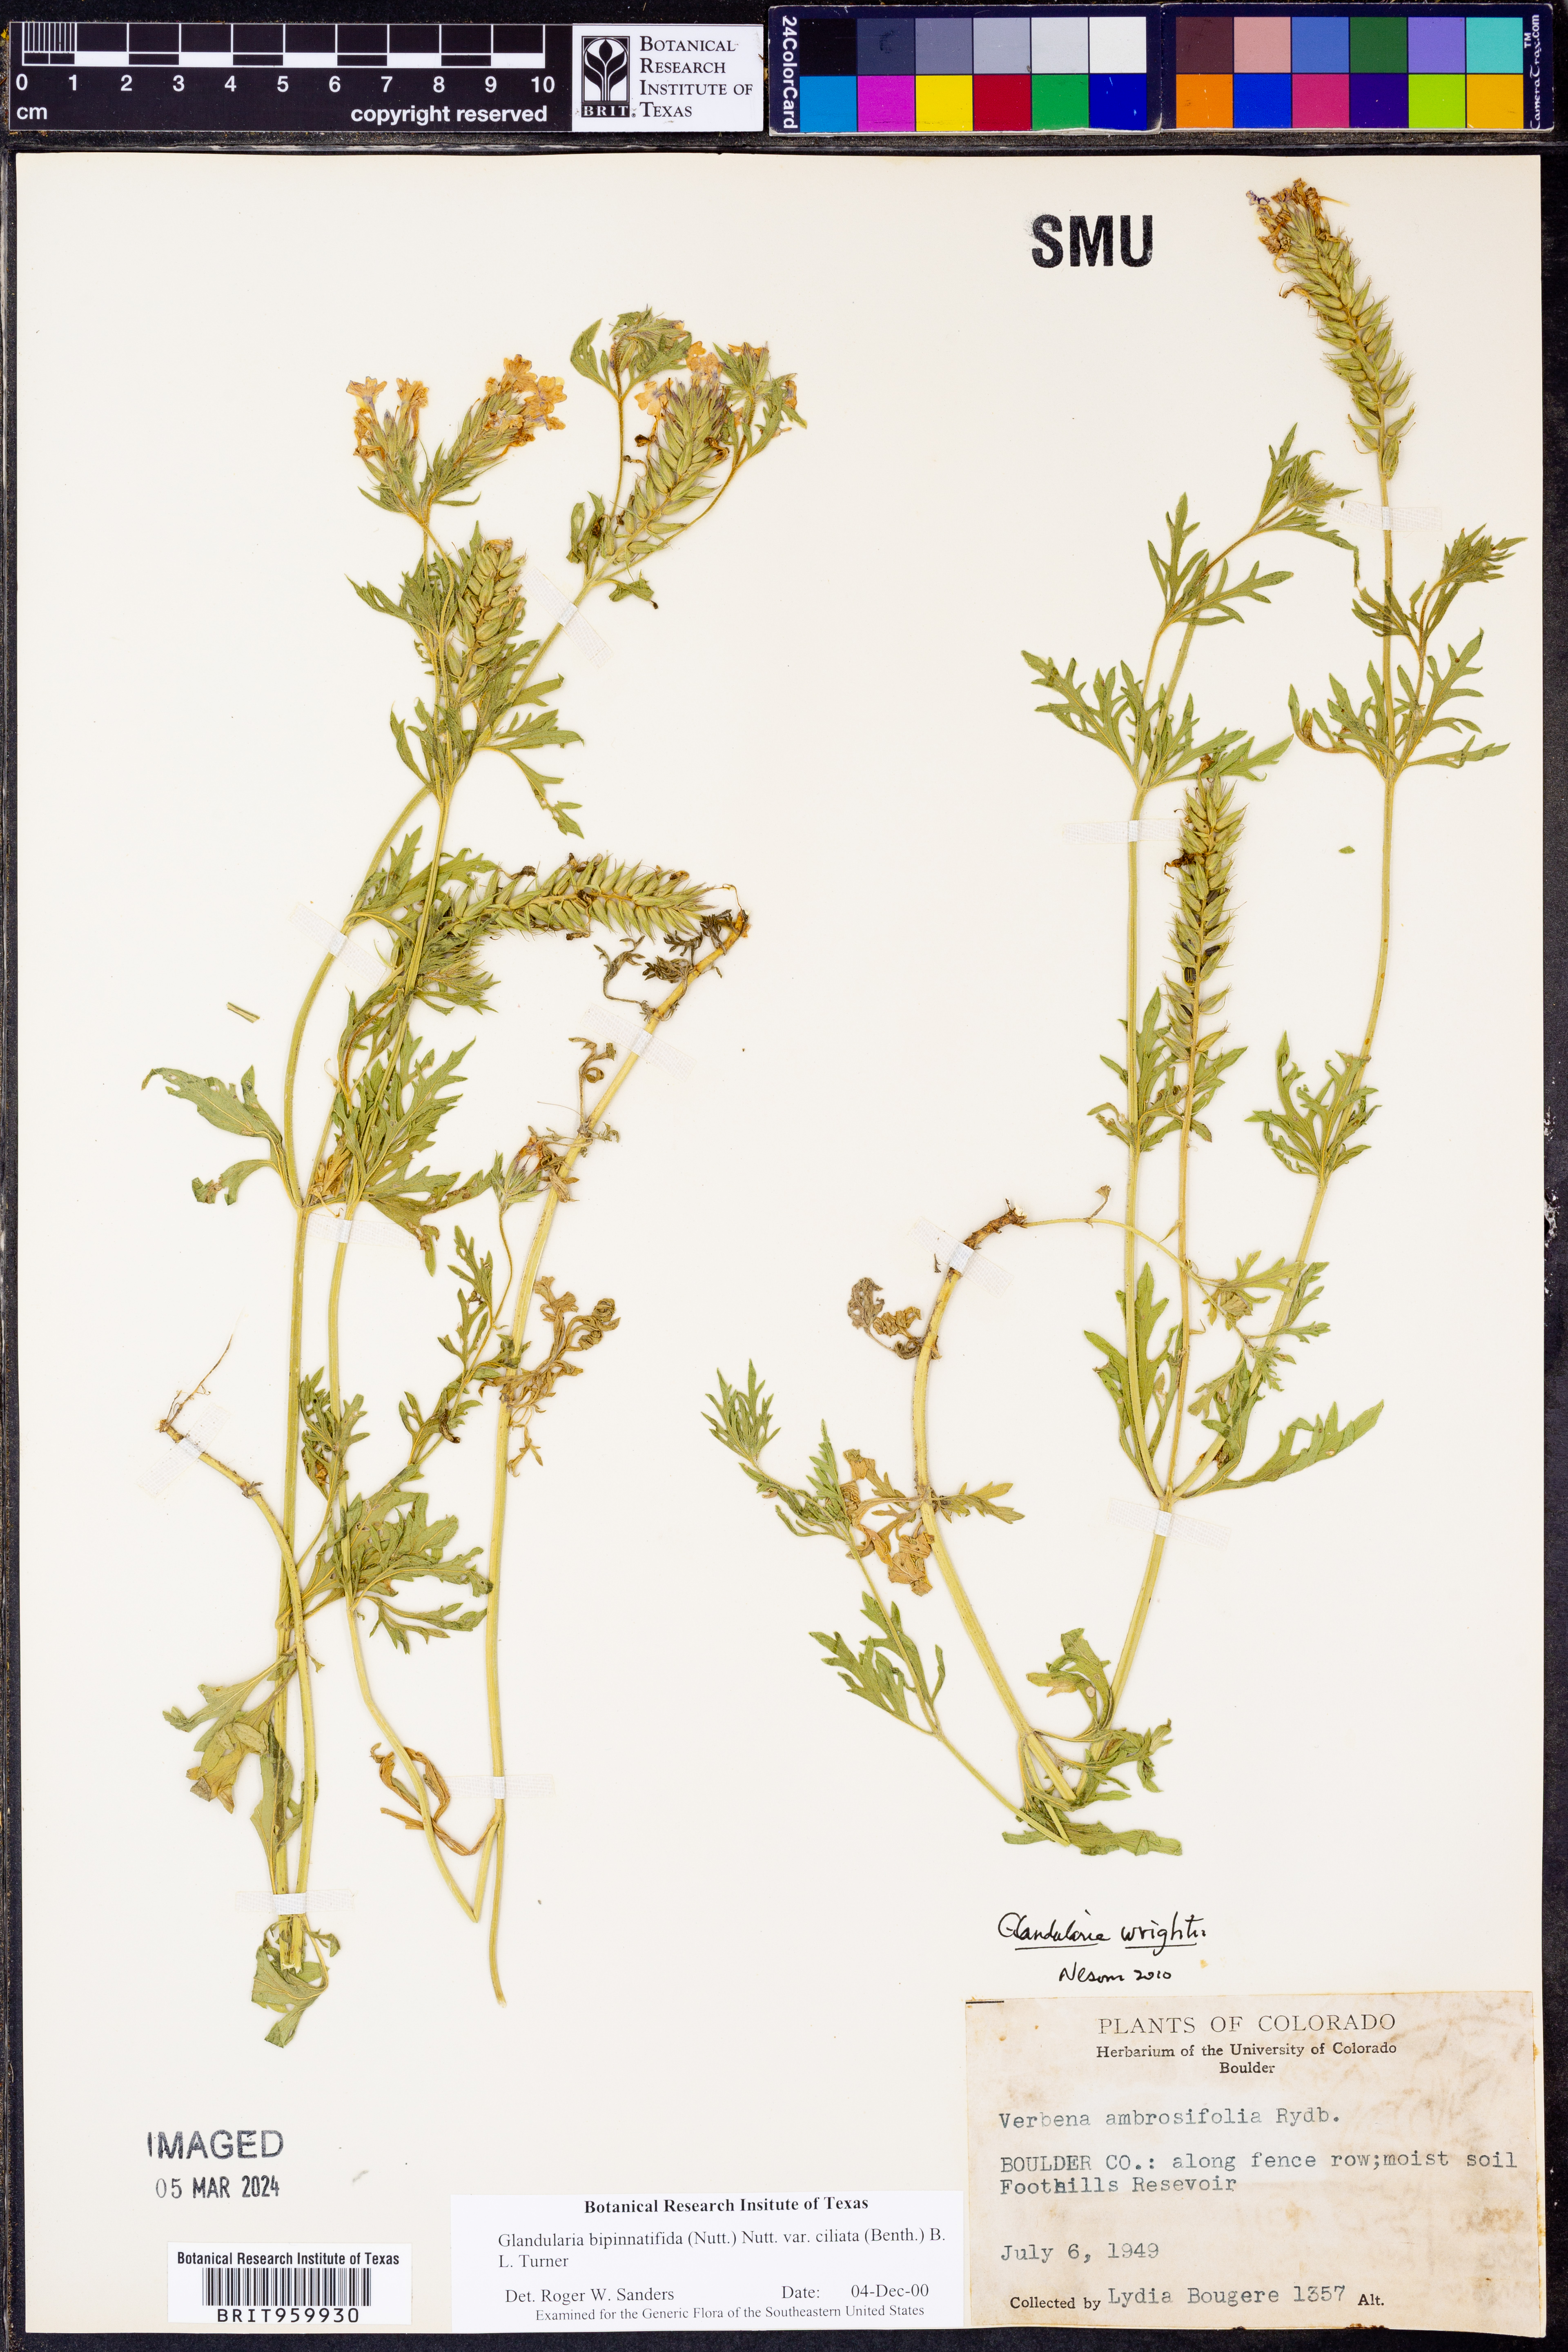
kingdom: Plantae
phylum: Tracheophyta
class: Magnoliopsida
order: Lamiales
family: Verbenaceae
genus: Verbena
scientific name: Verbena bipinnatifida
